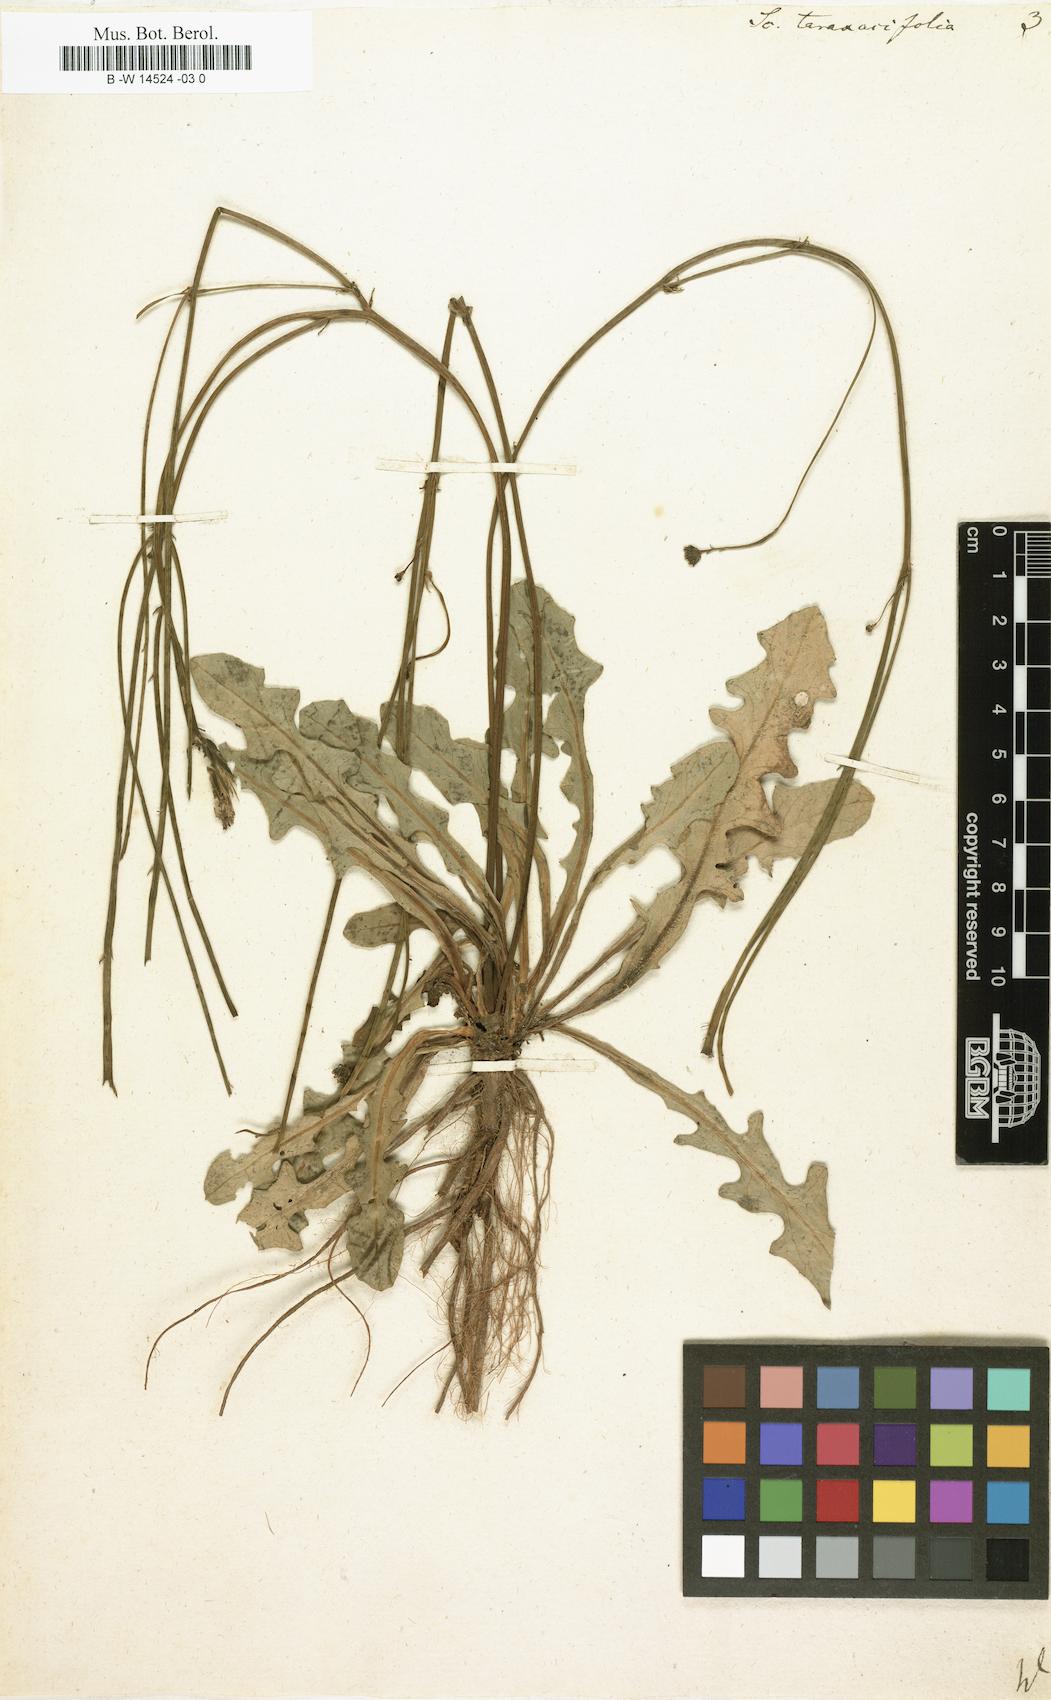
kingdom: Plantae
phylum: Tracheophyta
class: Magnoliopsida
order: Asterales
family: Asteraceae
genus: Hypochaeris
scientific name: Hypochaeris glabra
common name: Smooth catsear
